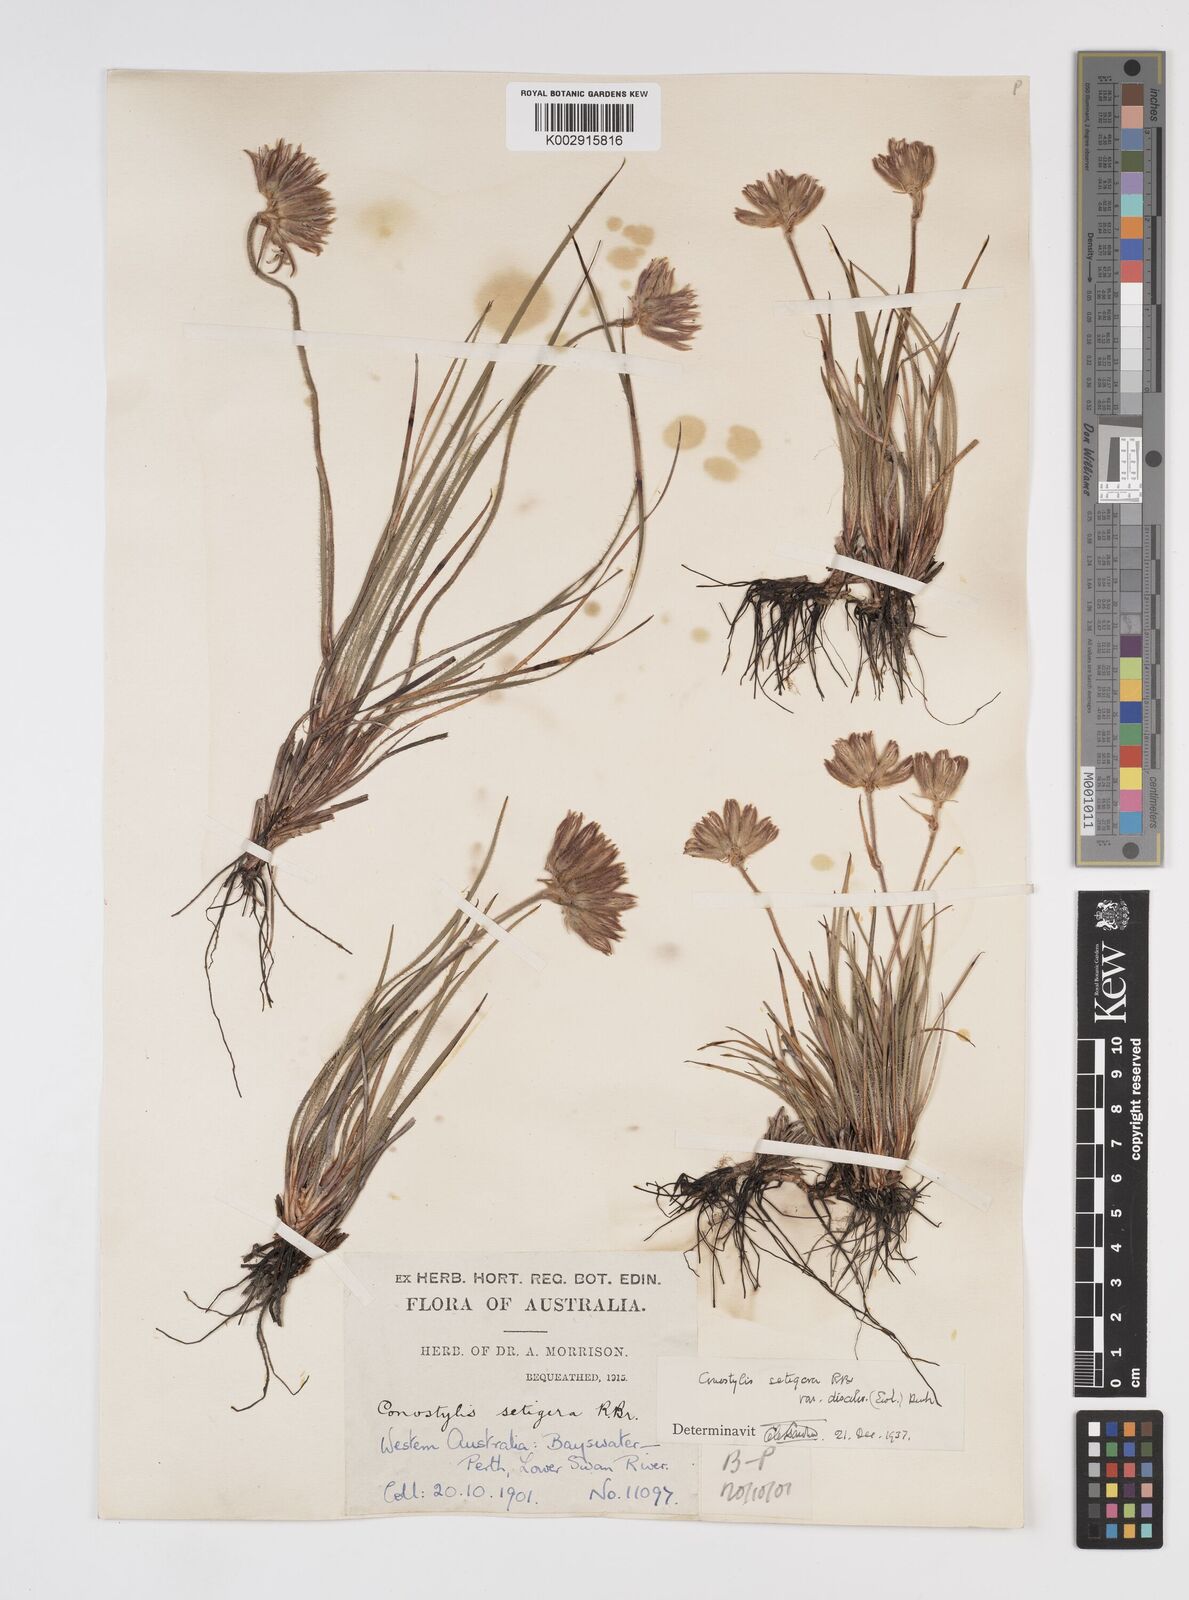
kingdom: Plantae
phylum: Tracheophyta
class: Liliopsida
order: Commelinales
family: Haemodoraceae
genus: Conostylis
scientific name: Conostylis setigera
